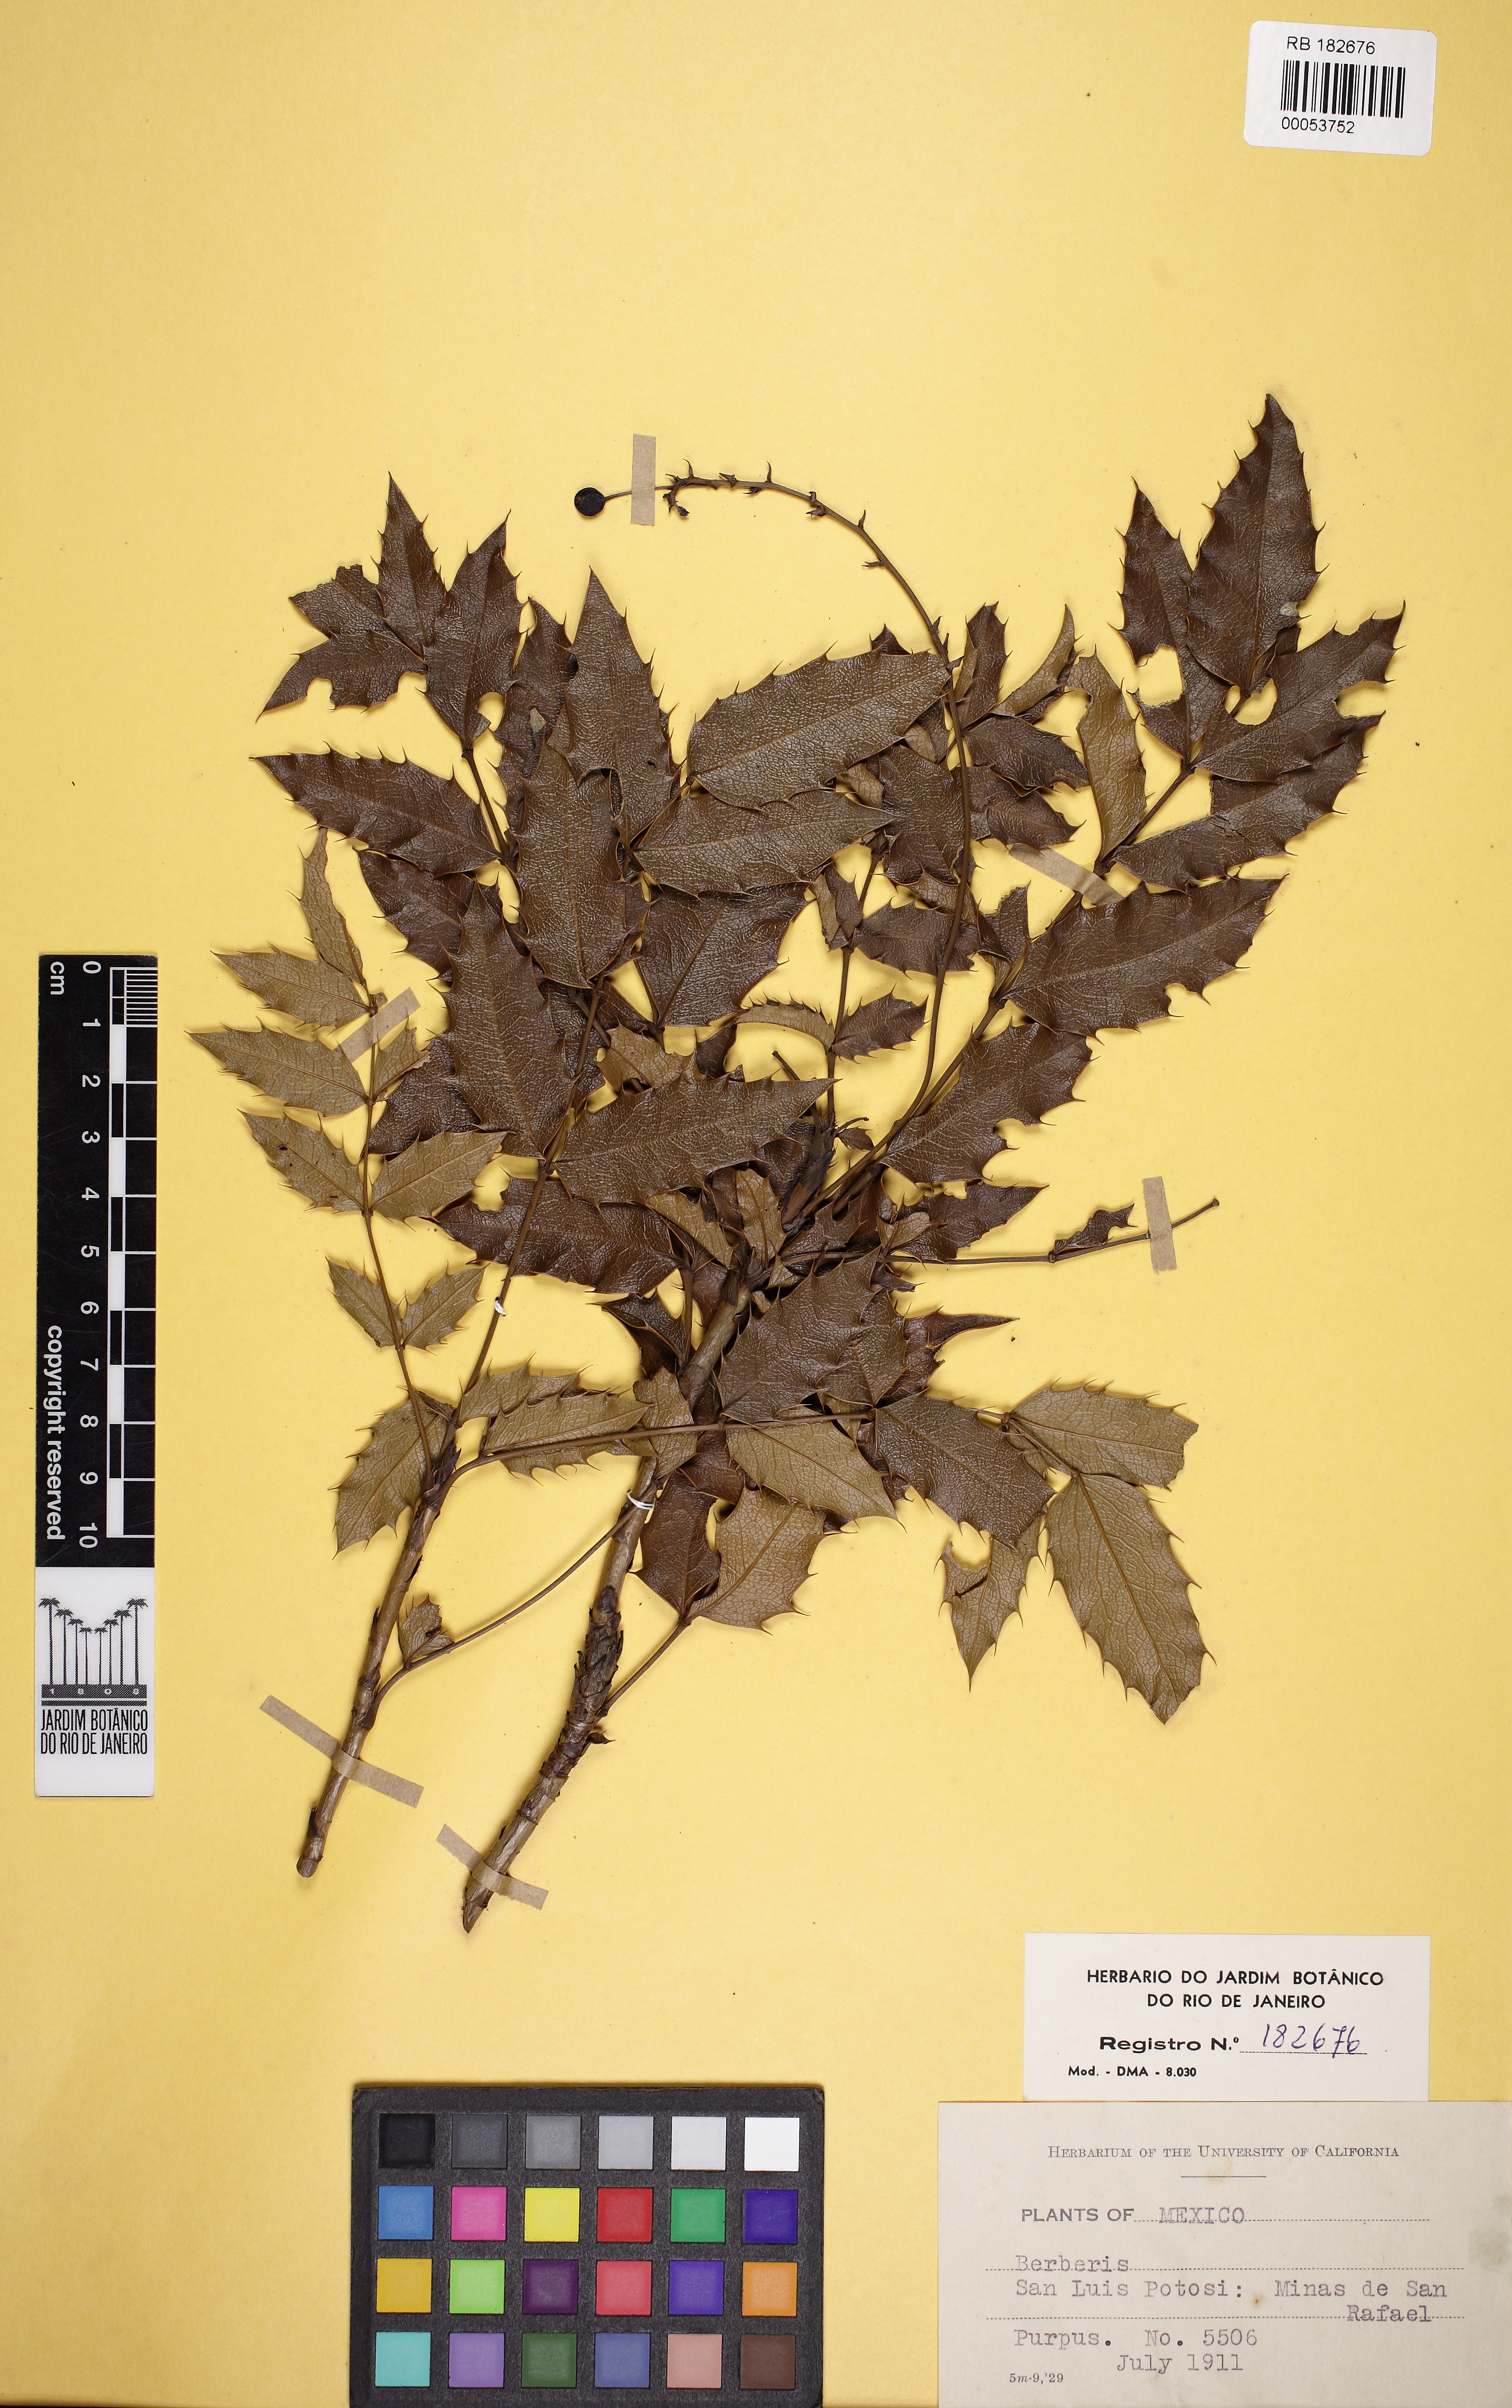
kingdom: Plantae
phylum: Tracheophyta
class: Magnoliopsida
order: Ranunculales
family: Berberidaceae
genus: Berberis
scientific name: Berberis
